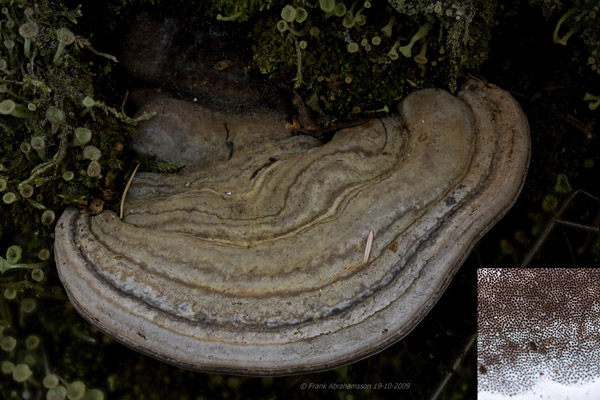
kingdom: Fungi
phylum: Basidiomycota
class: Agaricomycetes
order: Polyporales
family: Polyporaceae
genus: Ganoderma
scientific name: Ganoderma applanatum
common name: flad lakporesvamp
